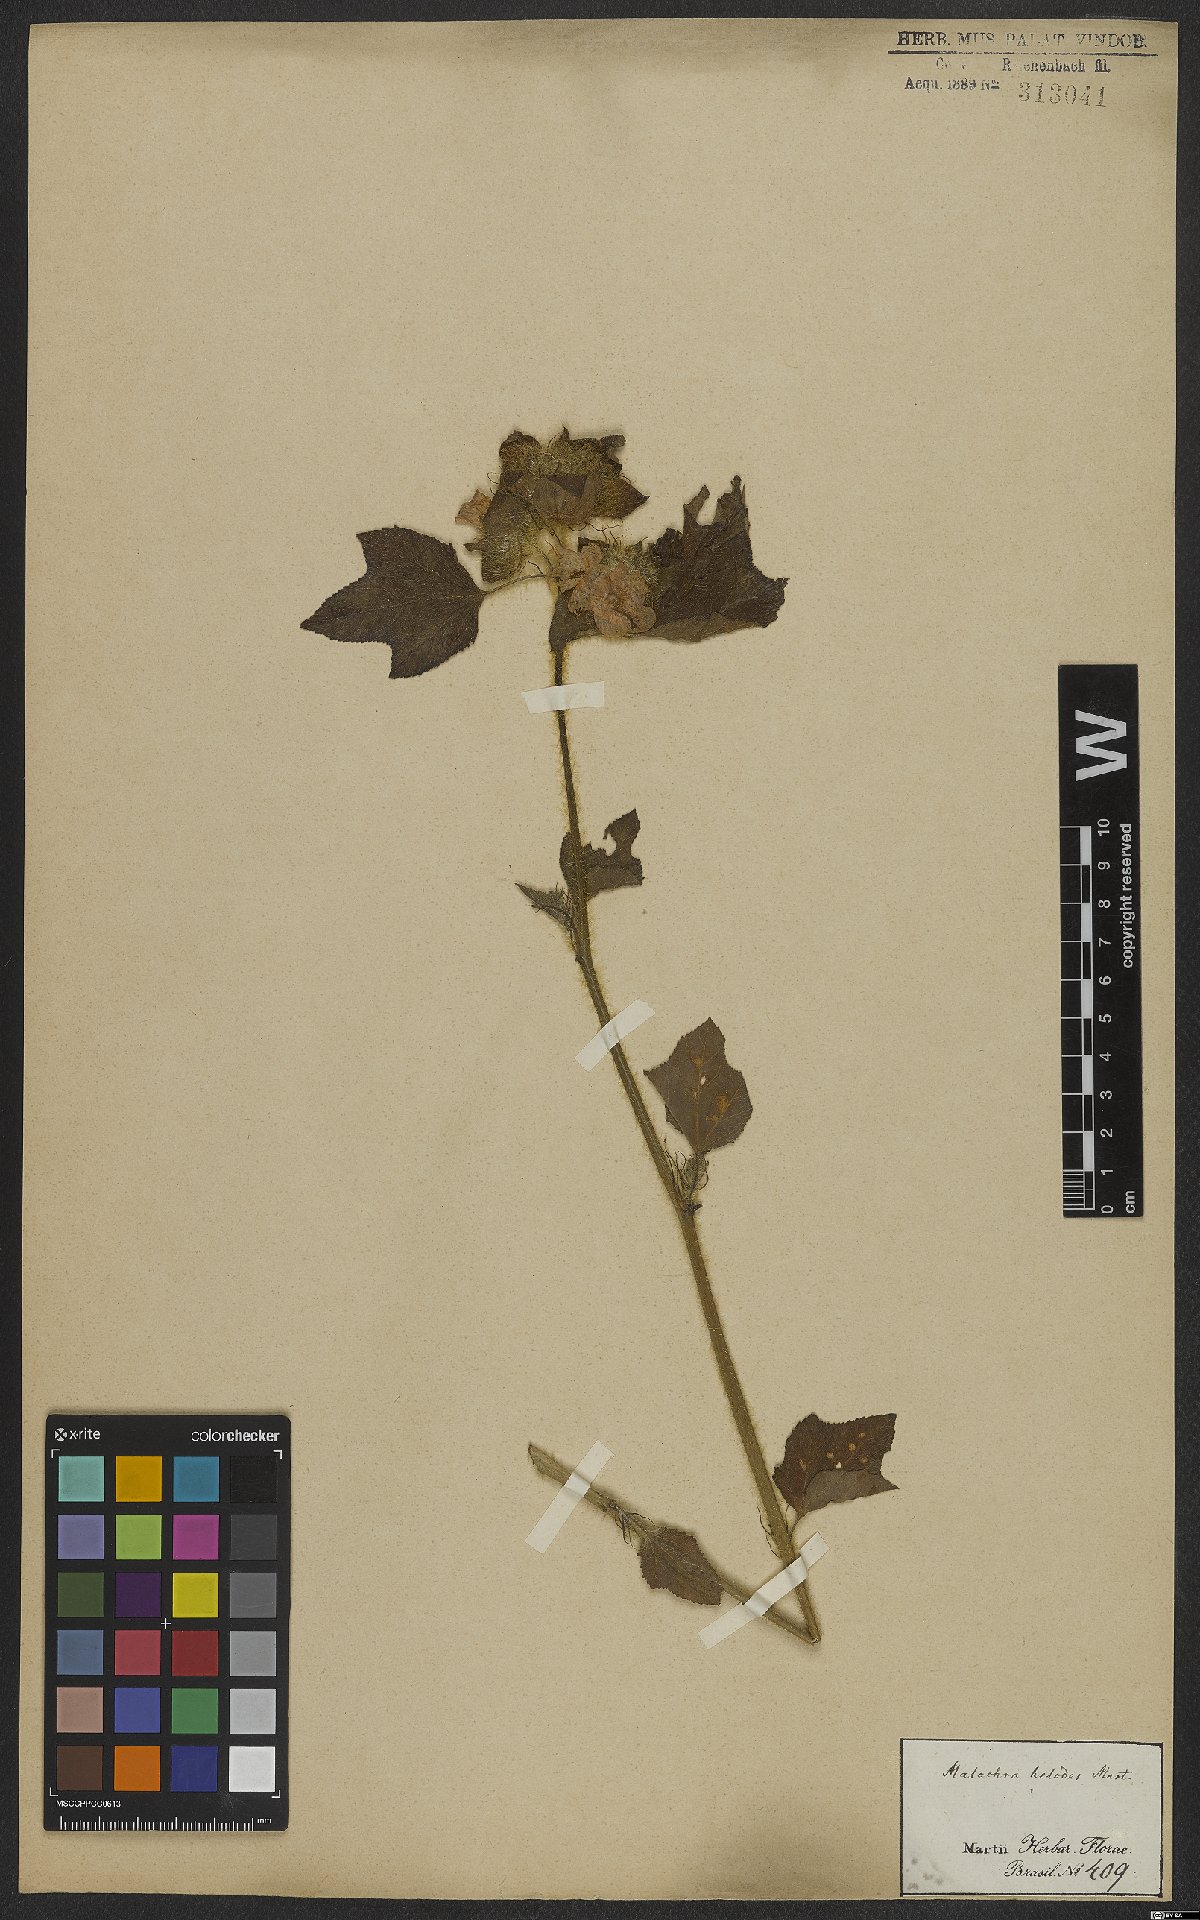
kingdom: Plantae
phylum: Tracheophyta
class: Magnoliopsida
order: Malvales
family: Malvaceae
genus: Malachra
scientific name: Malachra helodes
